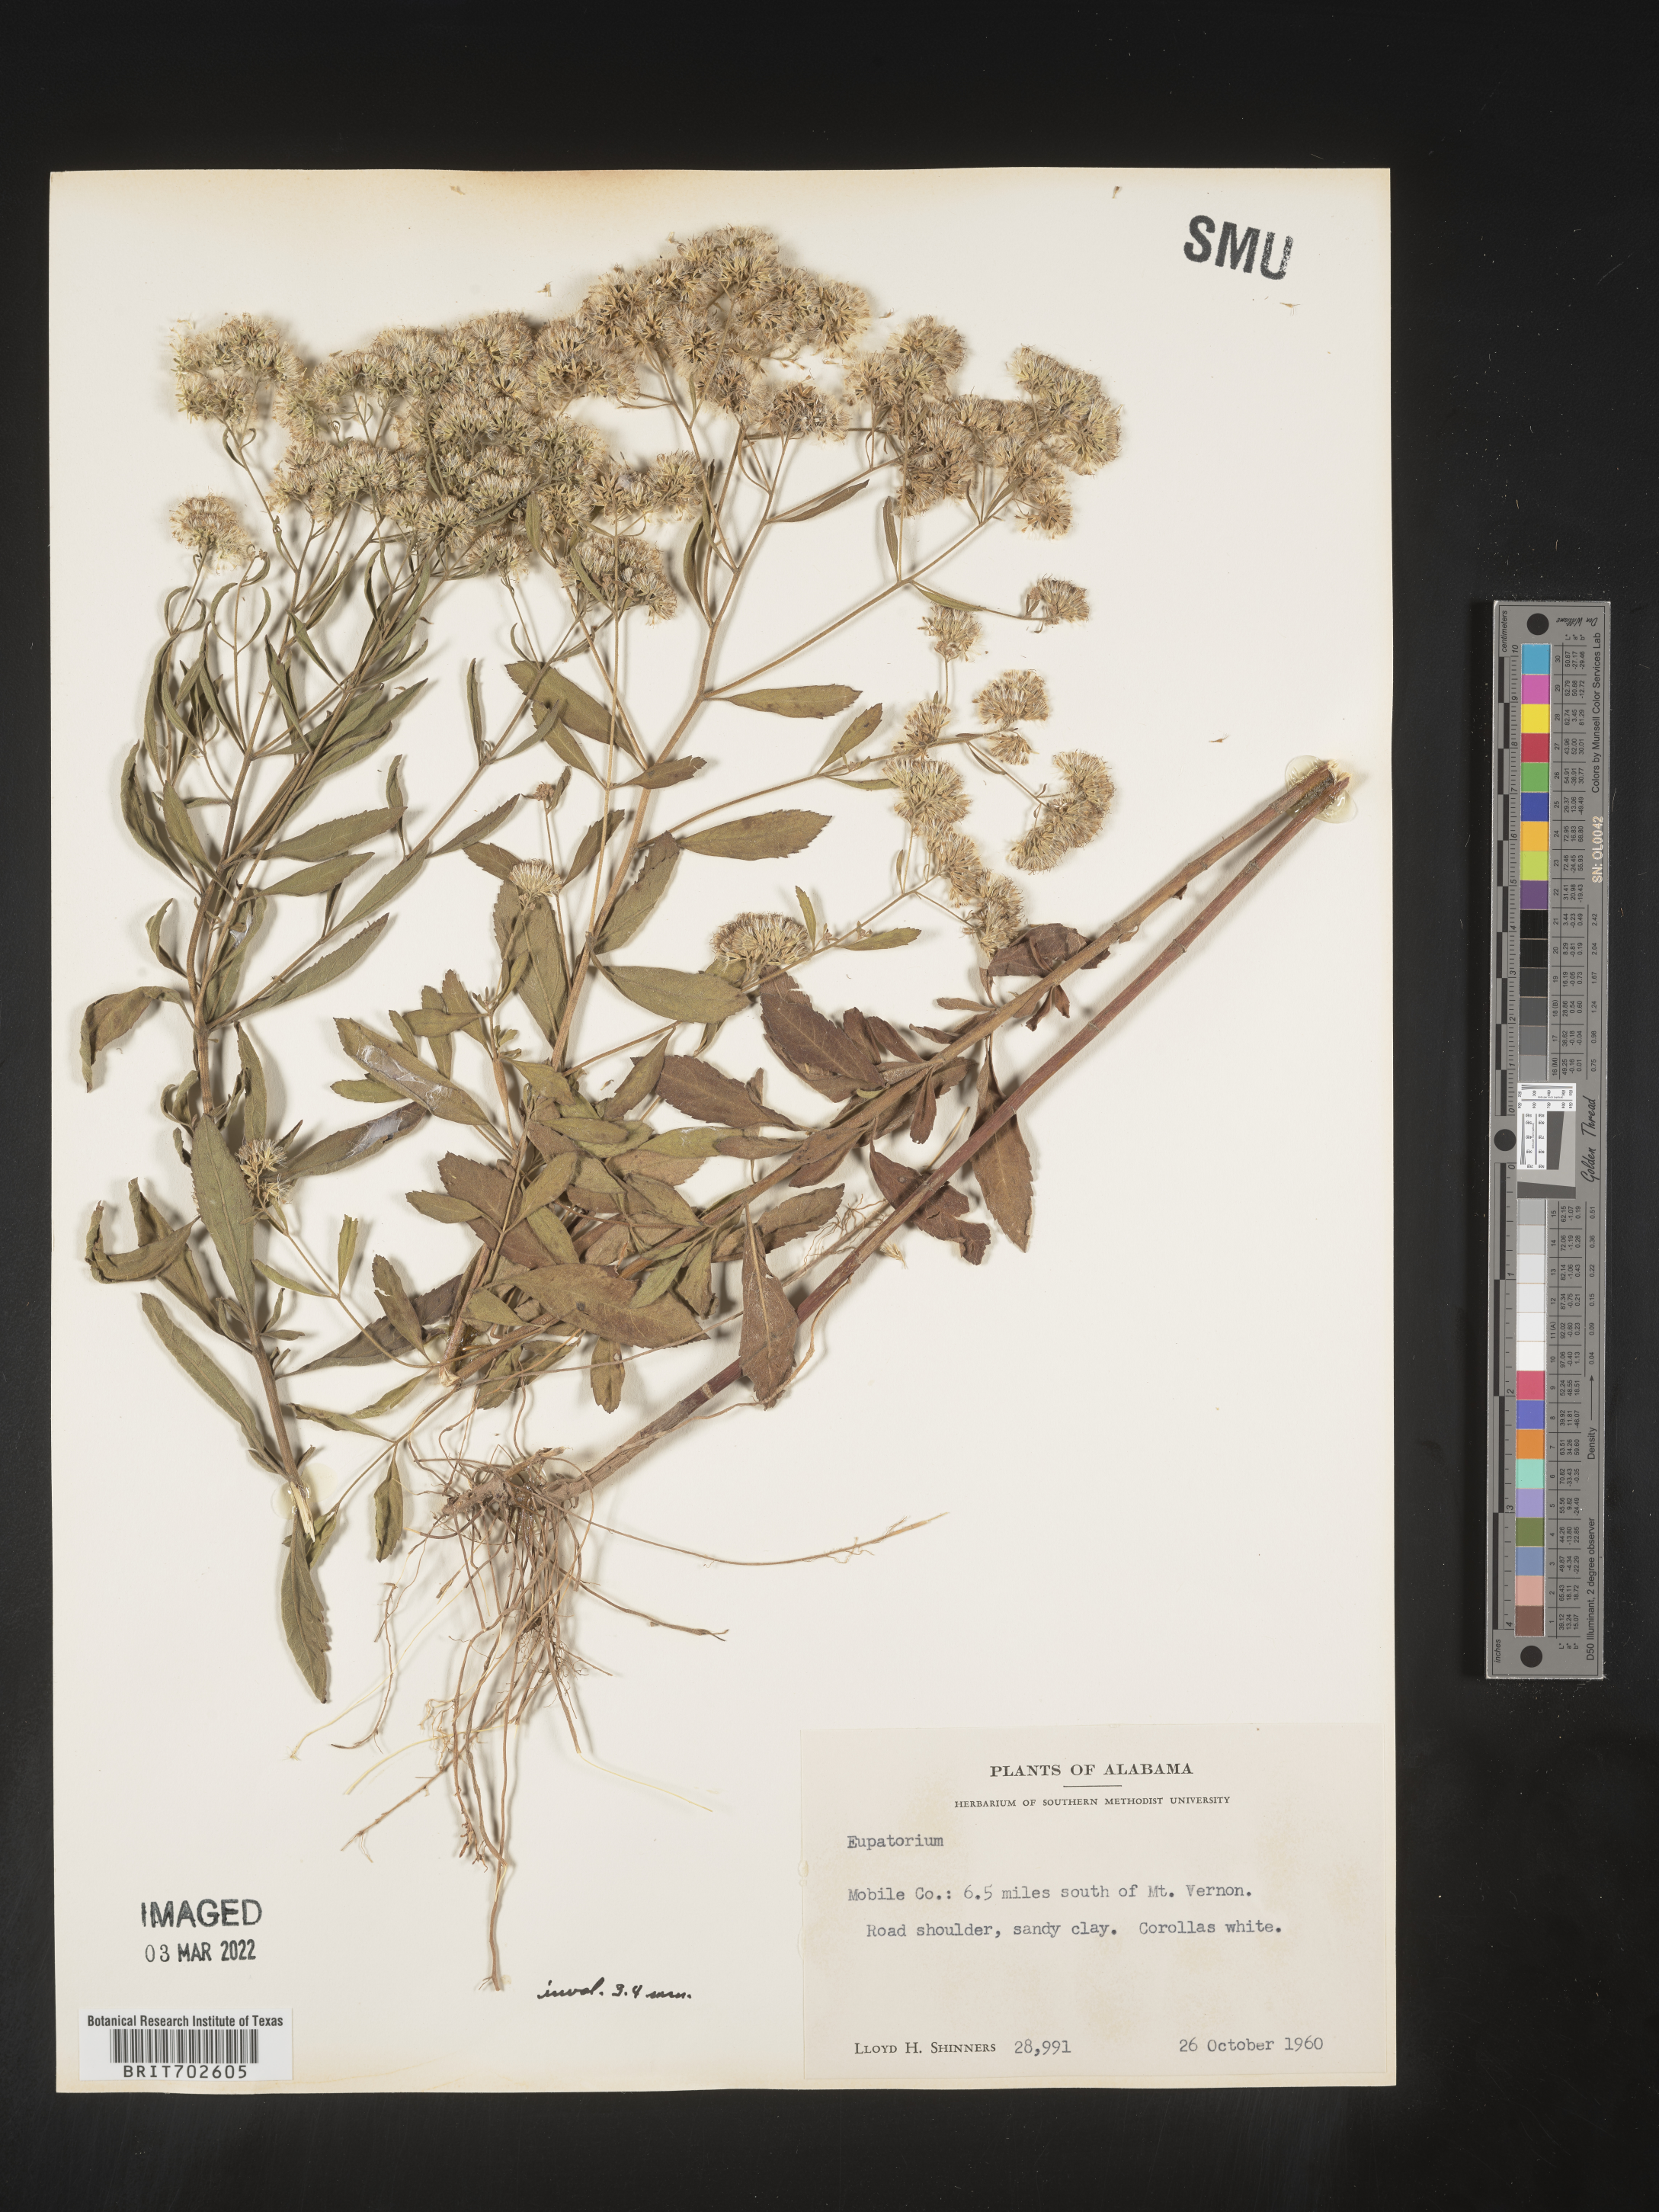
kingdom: Plantae
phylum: Tracheophyta
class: Magnoliopsida
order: Asterales
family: Asteraceae
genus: Eupatorium
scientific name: Eupatorium
